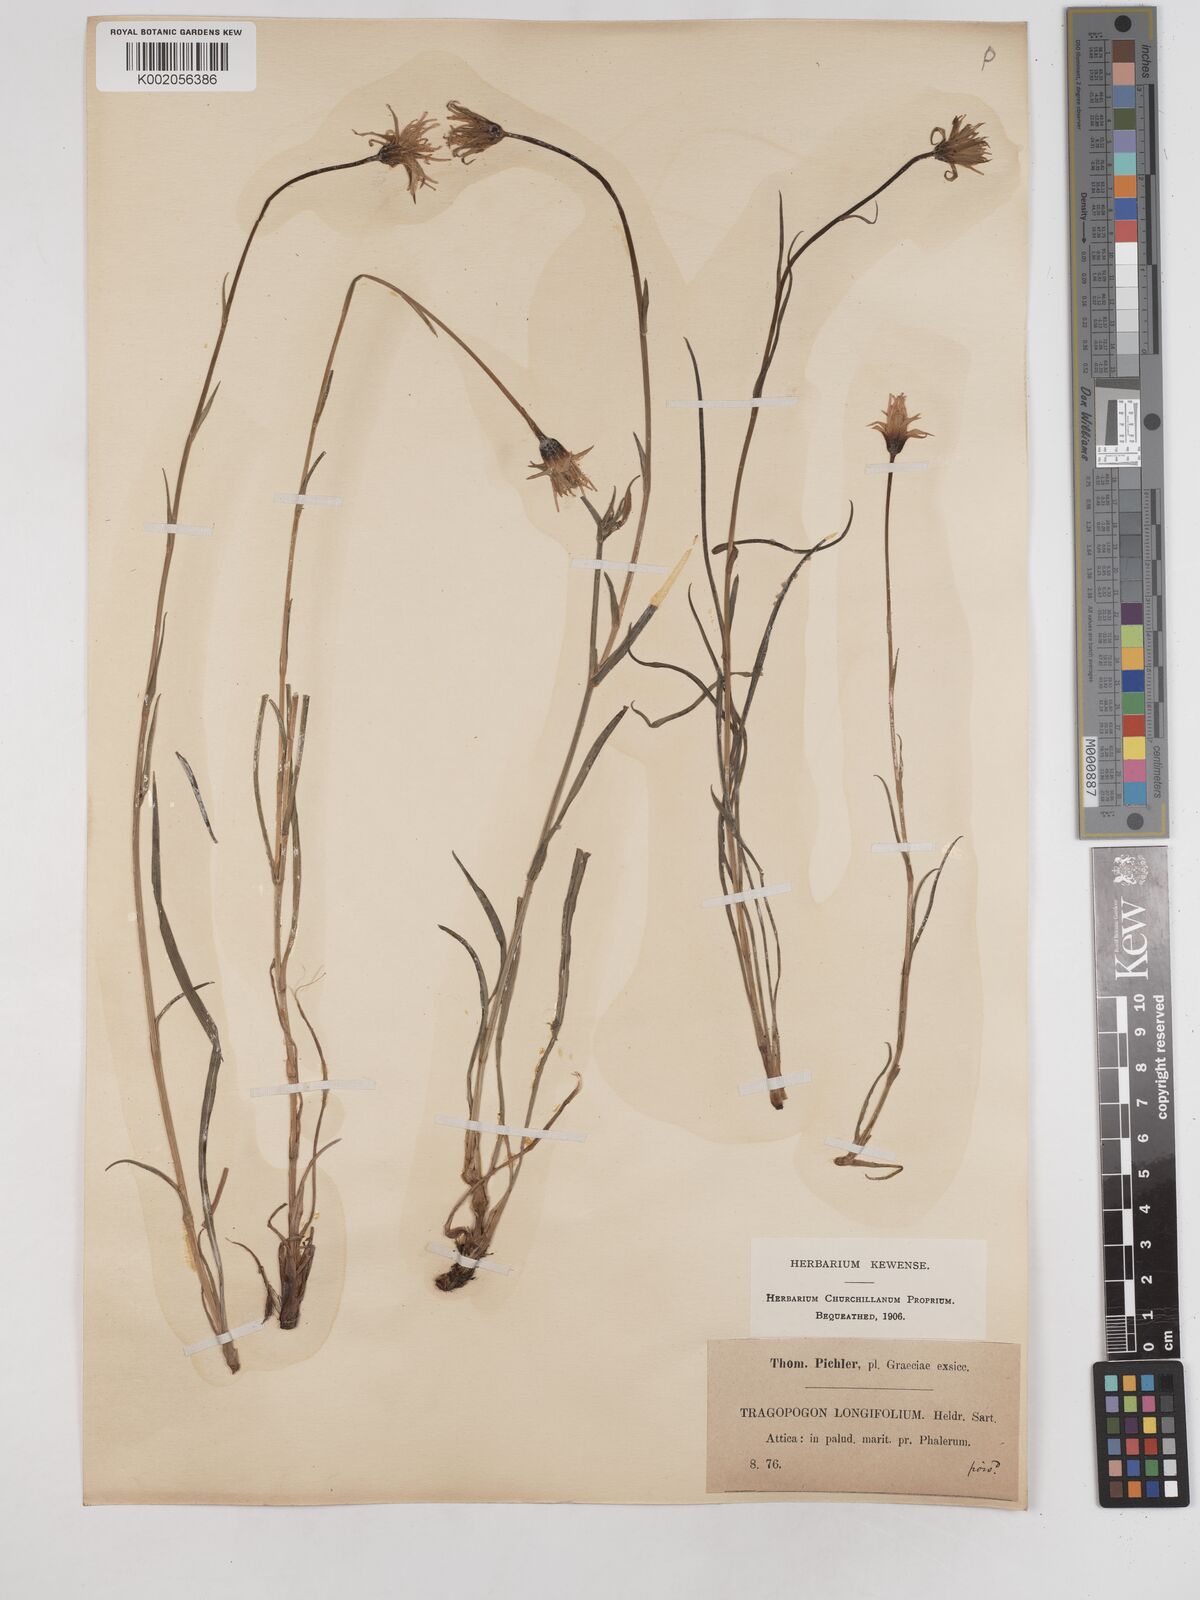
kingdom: Plantae
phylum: Tracheophyta
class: Magnoliopsida
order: Asterales
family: Asteraceae
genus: Tragopogon
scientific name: Tragopogon longifolius
